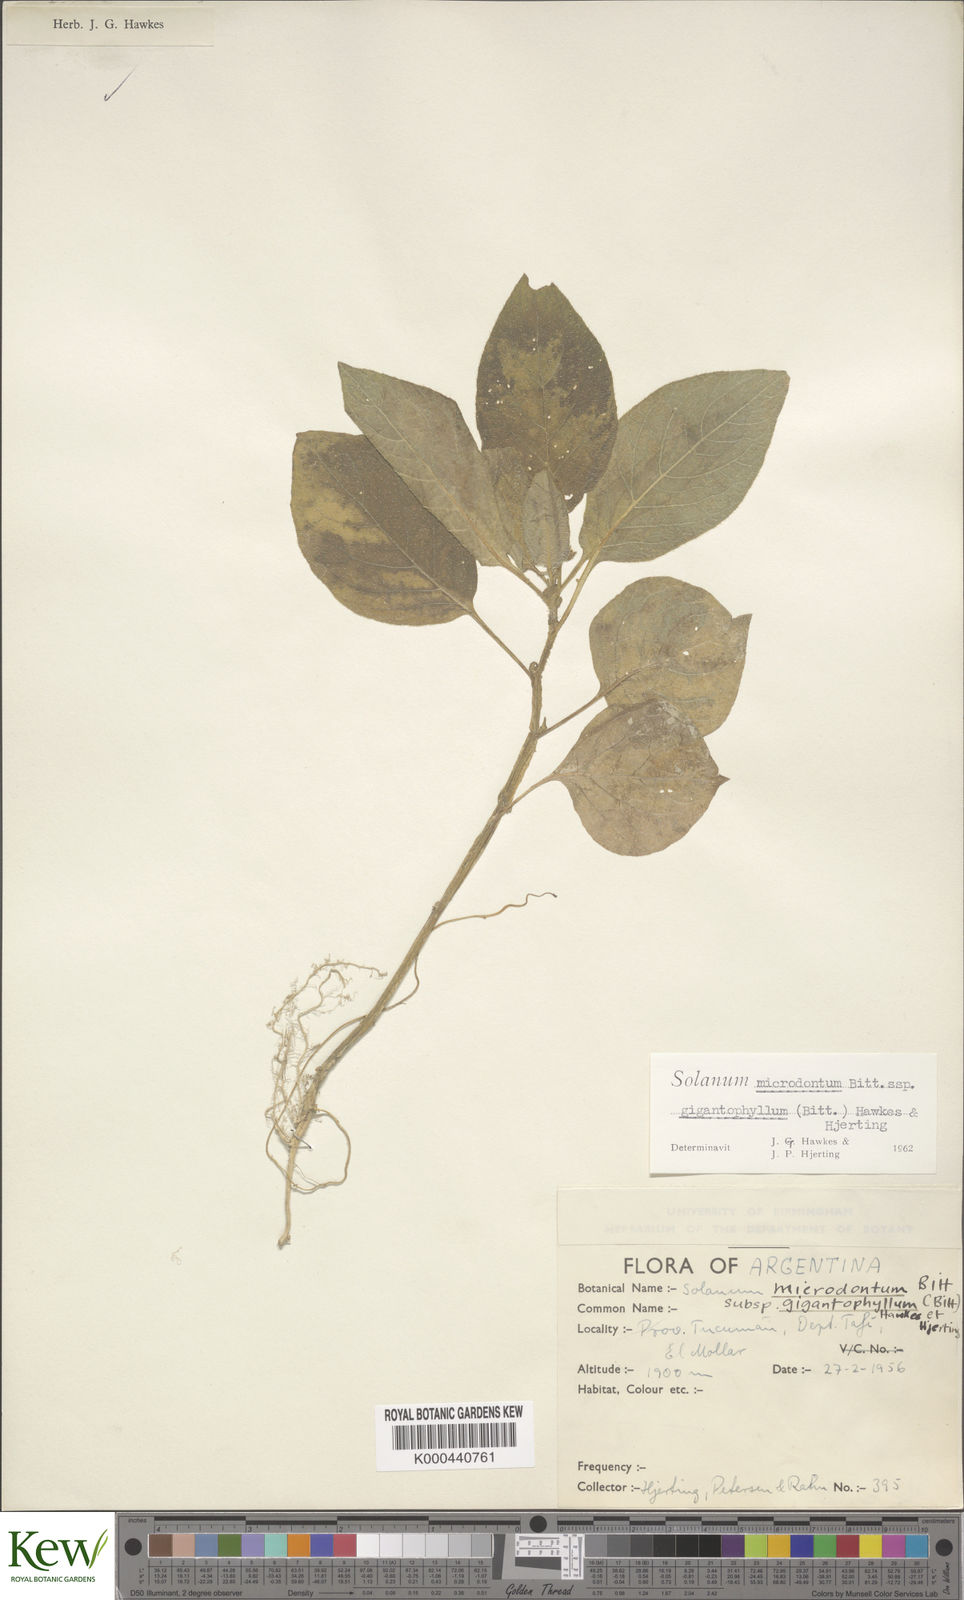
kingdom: Plantae
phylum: Tracheophyta
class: Magnoliopsida
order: Solanales
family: Solanaceae
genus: Solanum
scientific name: Solanum microdontum
